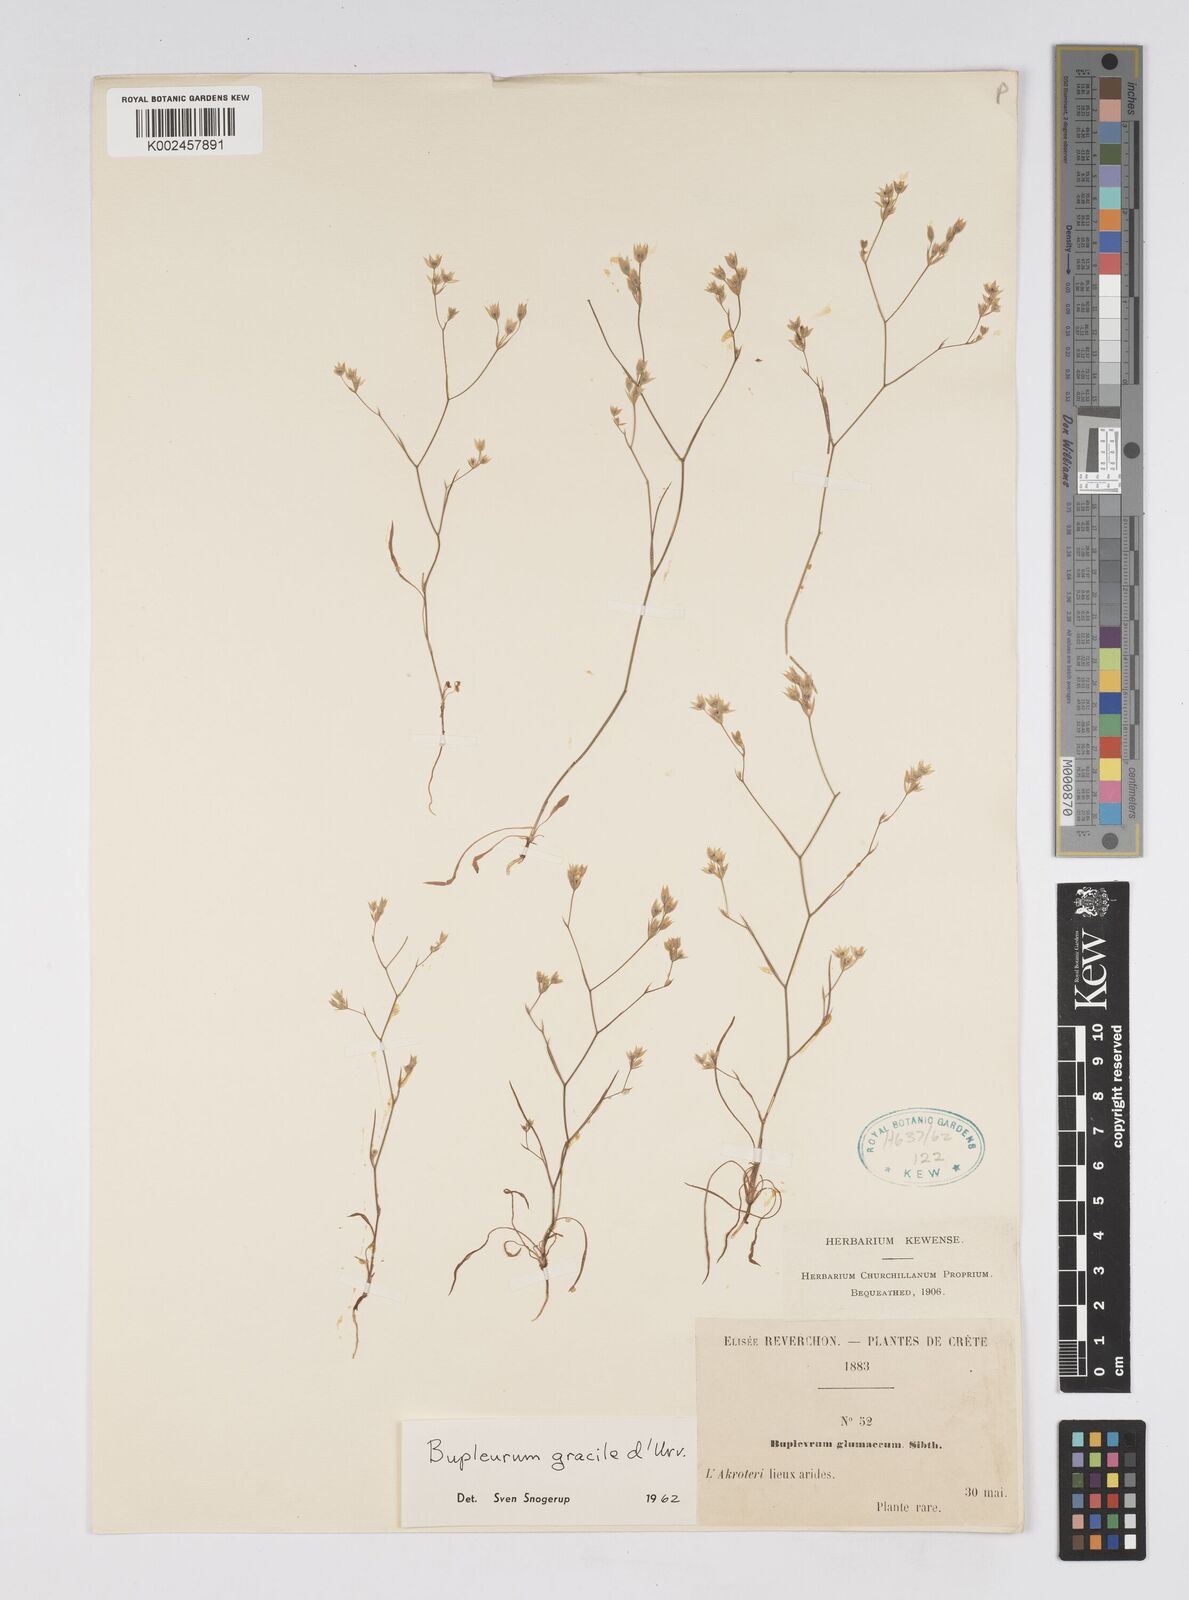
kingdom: Plantae
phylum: Tracheophyta
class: Magnoliopsida
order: Apiales
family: Apiaceae
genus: Bupleurum
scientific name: Bupleurum gracile
